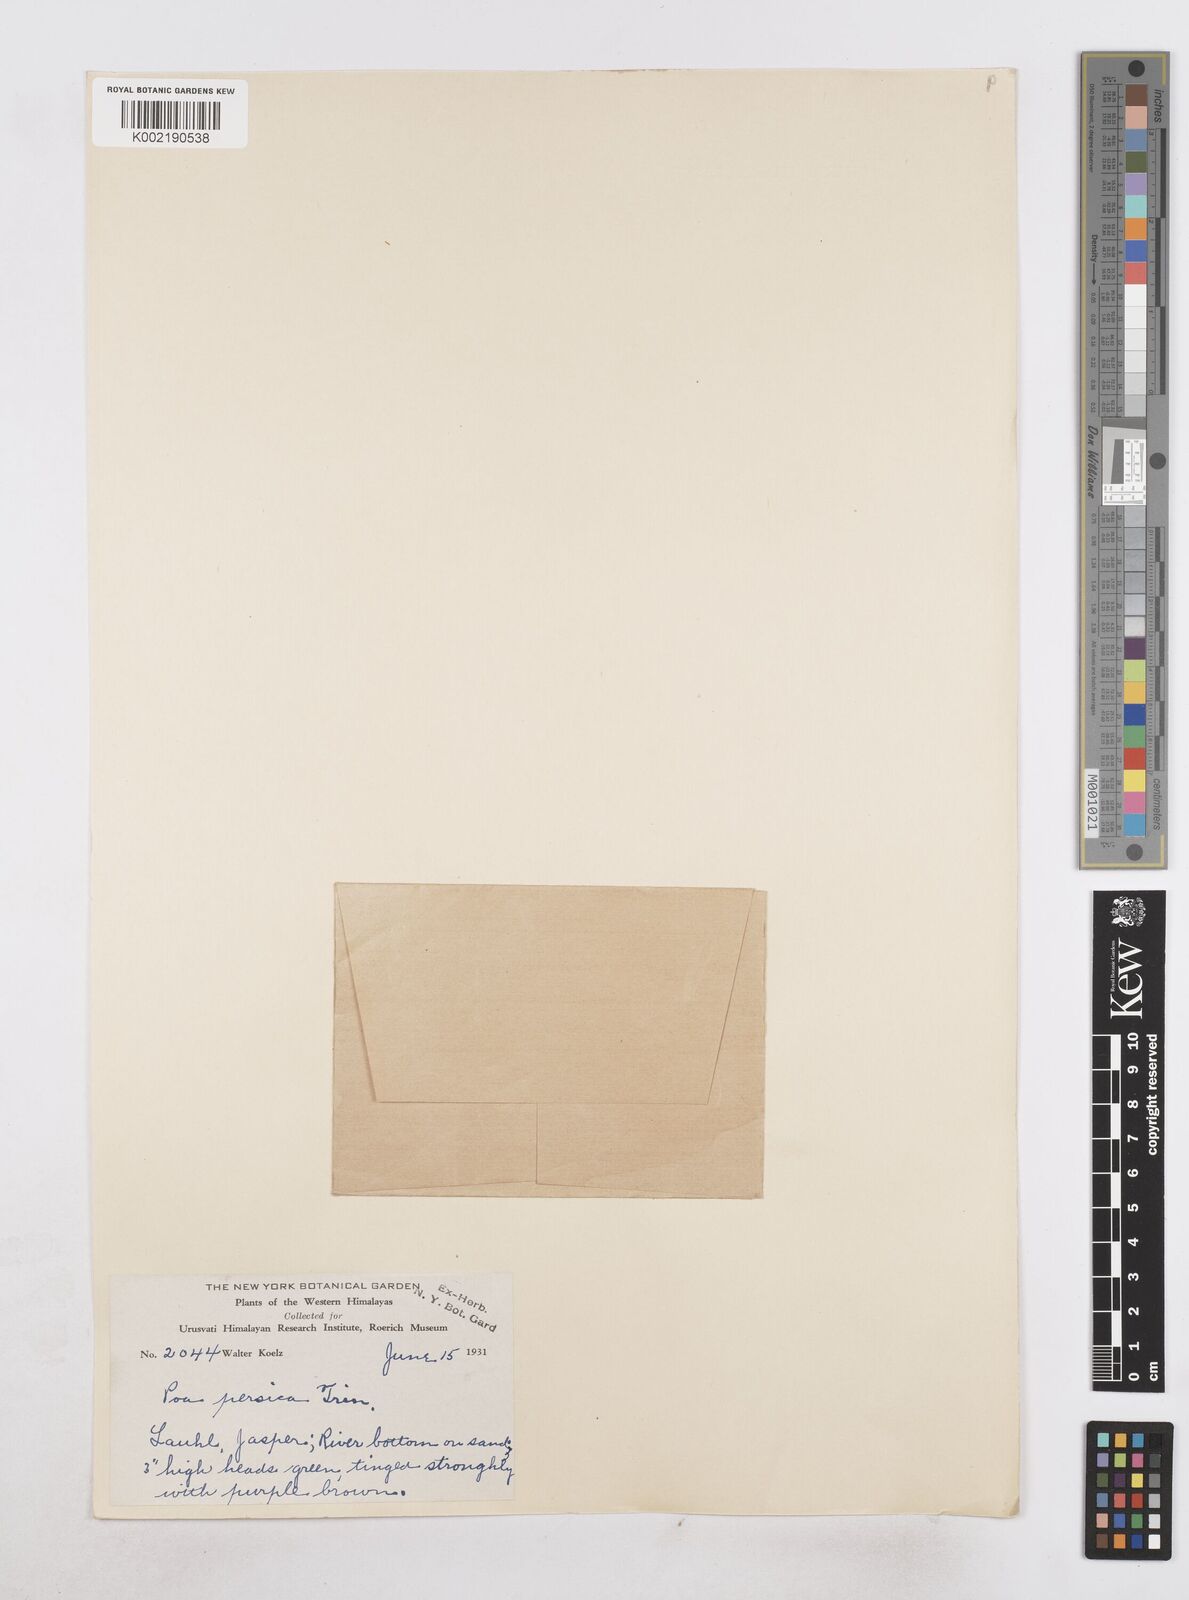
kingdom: Plantae
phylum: Tracheophyta
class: Liliopsida
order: Poales
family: Poaceae
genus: Poa
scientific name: Poa diaphora
